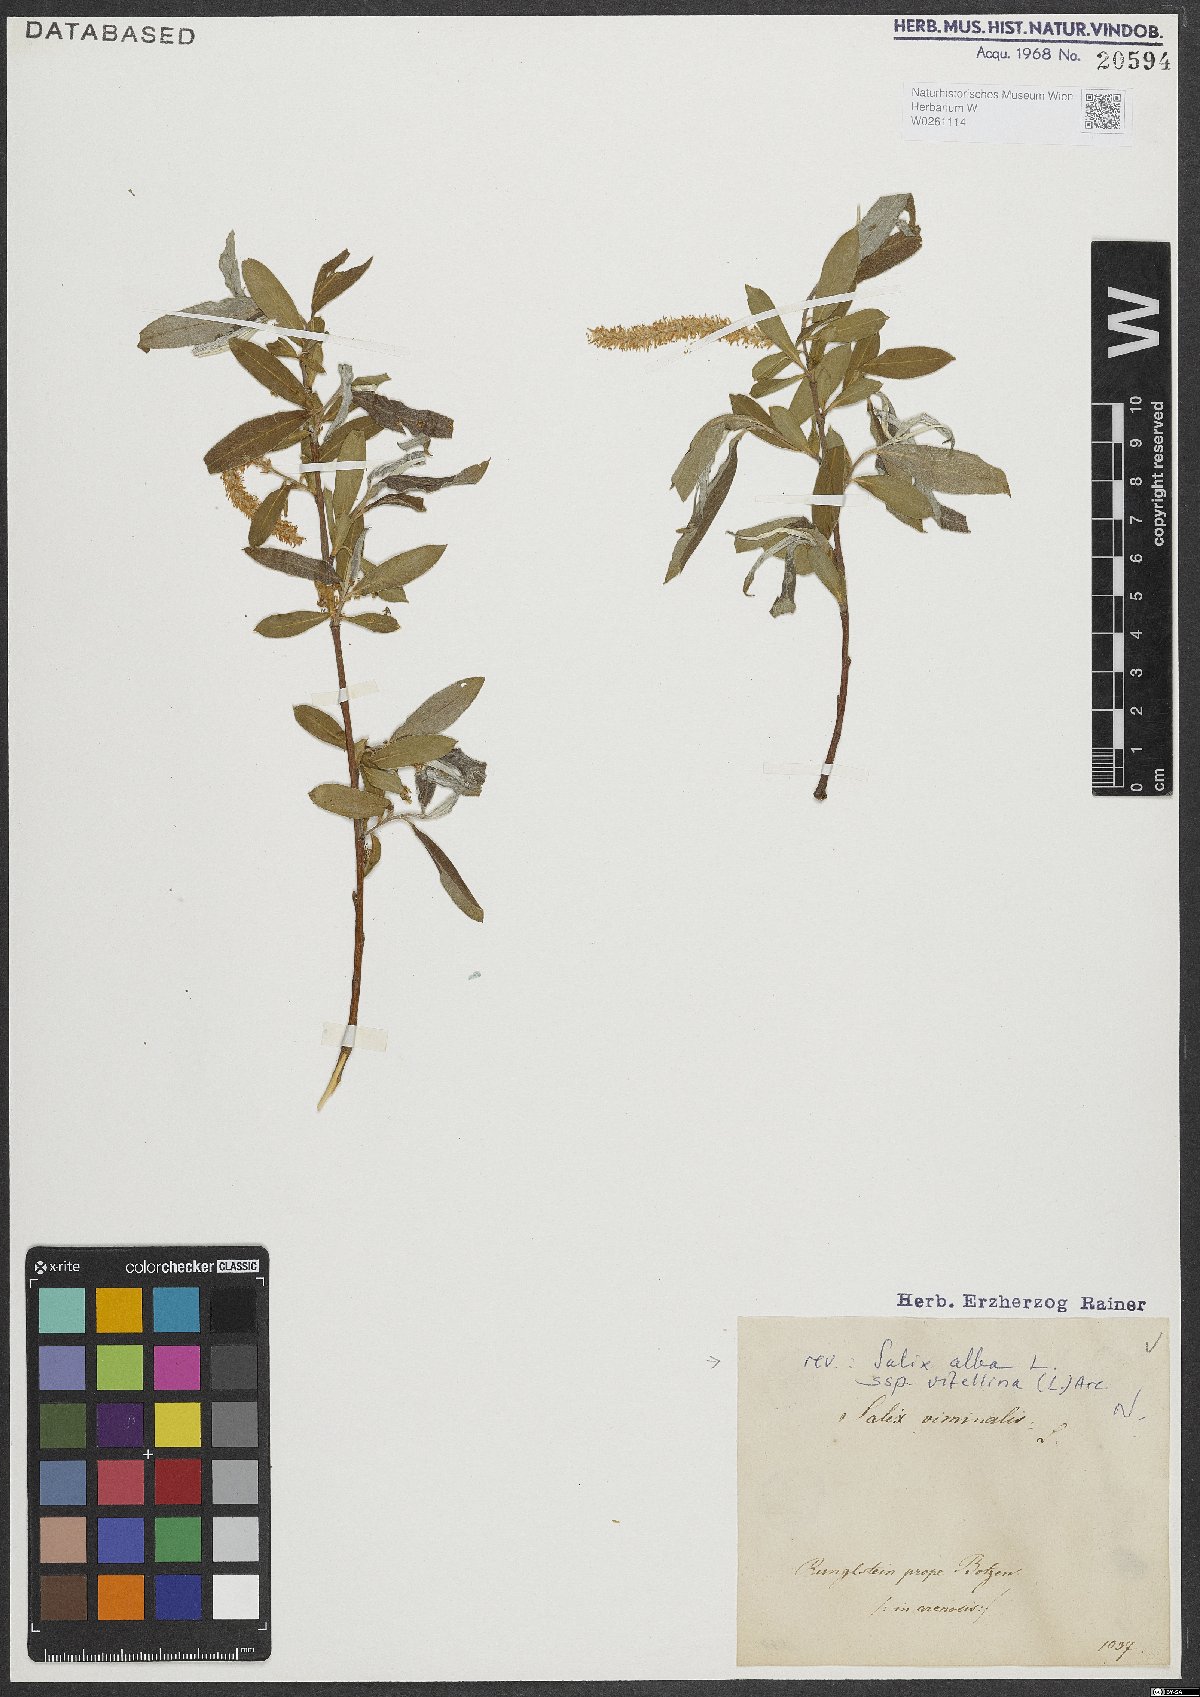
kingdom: Plantae
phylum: Tracheophyta
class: Magnoliopsida
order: Malpighiales
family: Salicaceae
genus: Salix
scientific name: Salix alba
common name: White willow
